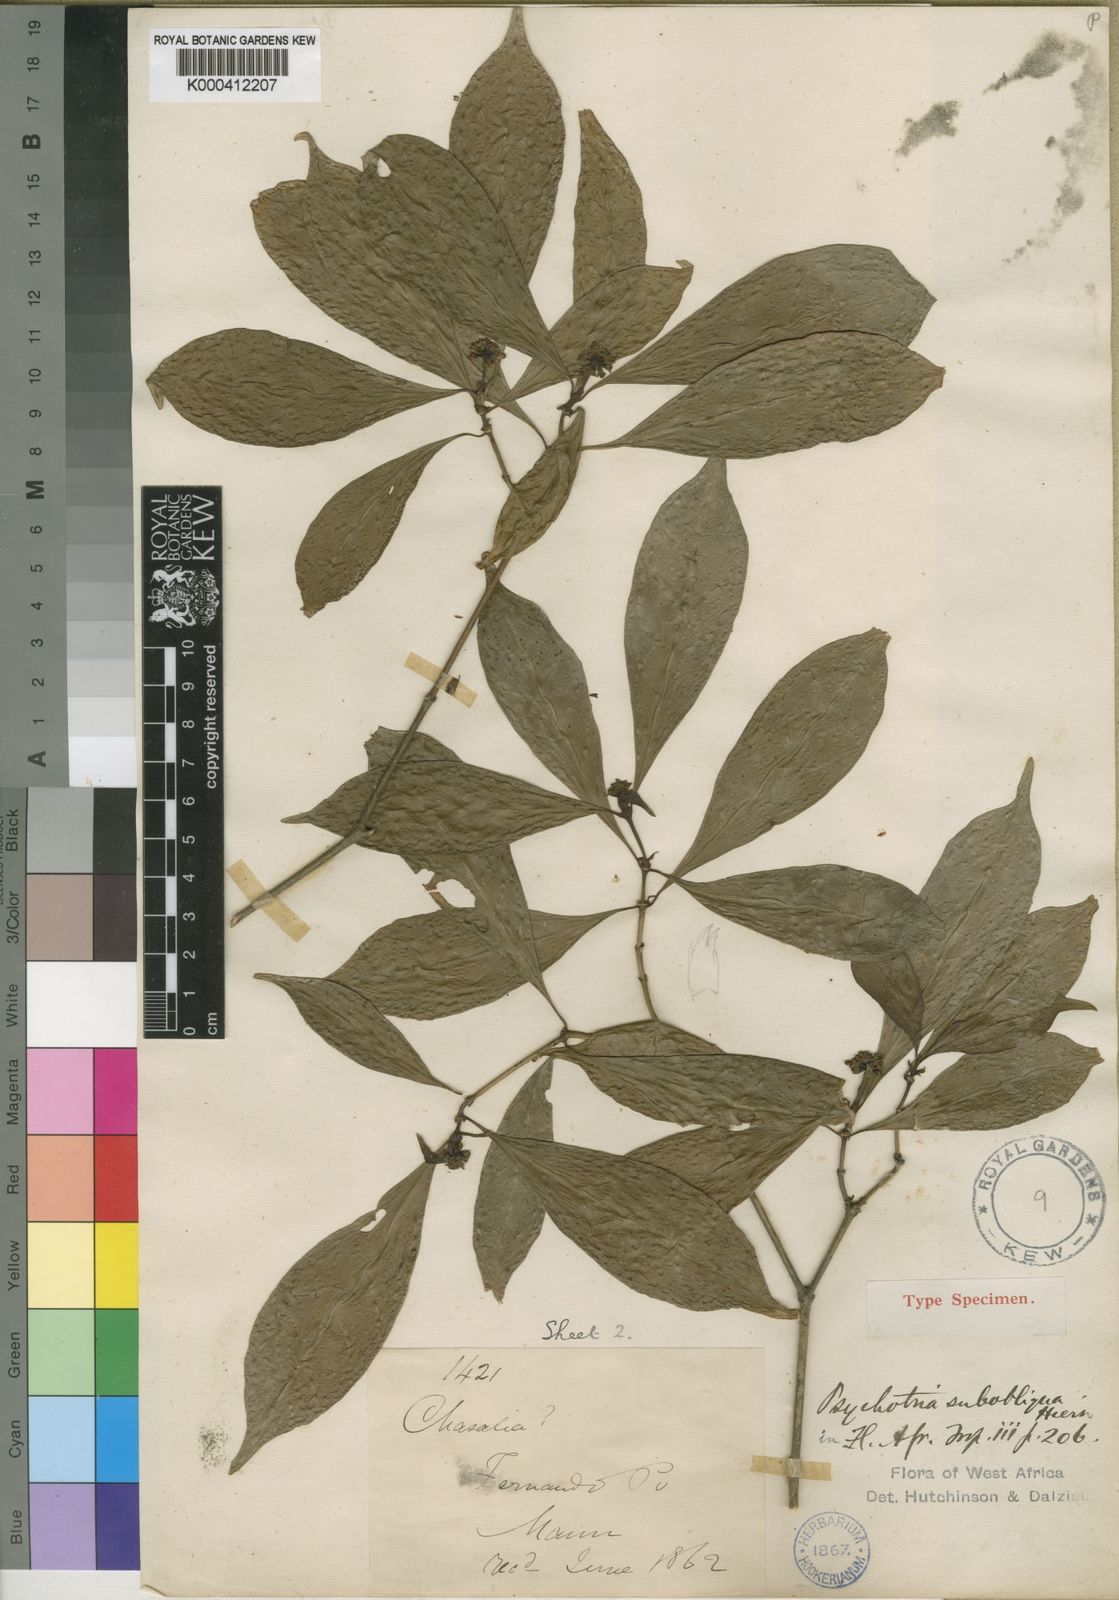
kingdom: Plantae
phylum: Tracheophyta
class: Magnoliopsida
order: Gentianales
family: Rubiaceae
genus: Psychotria
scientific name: Psychotria subobliqua
